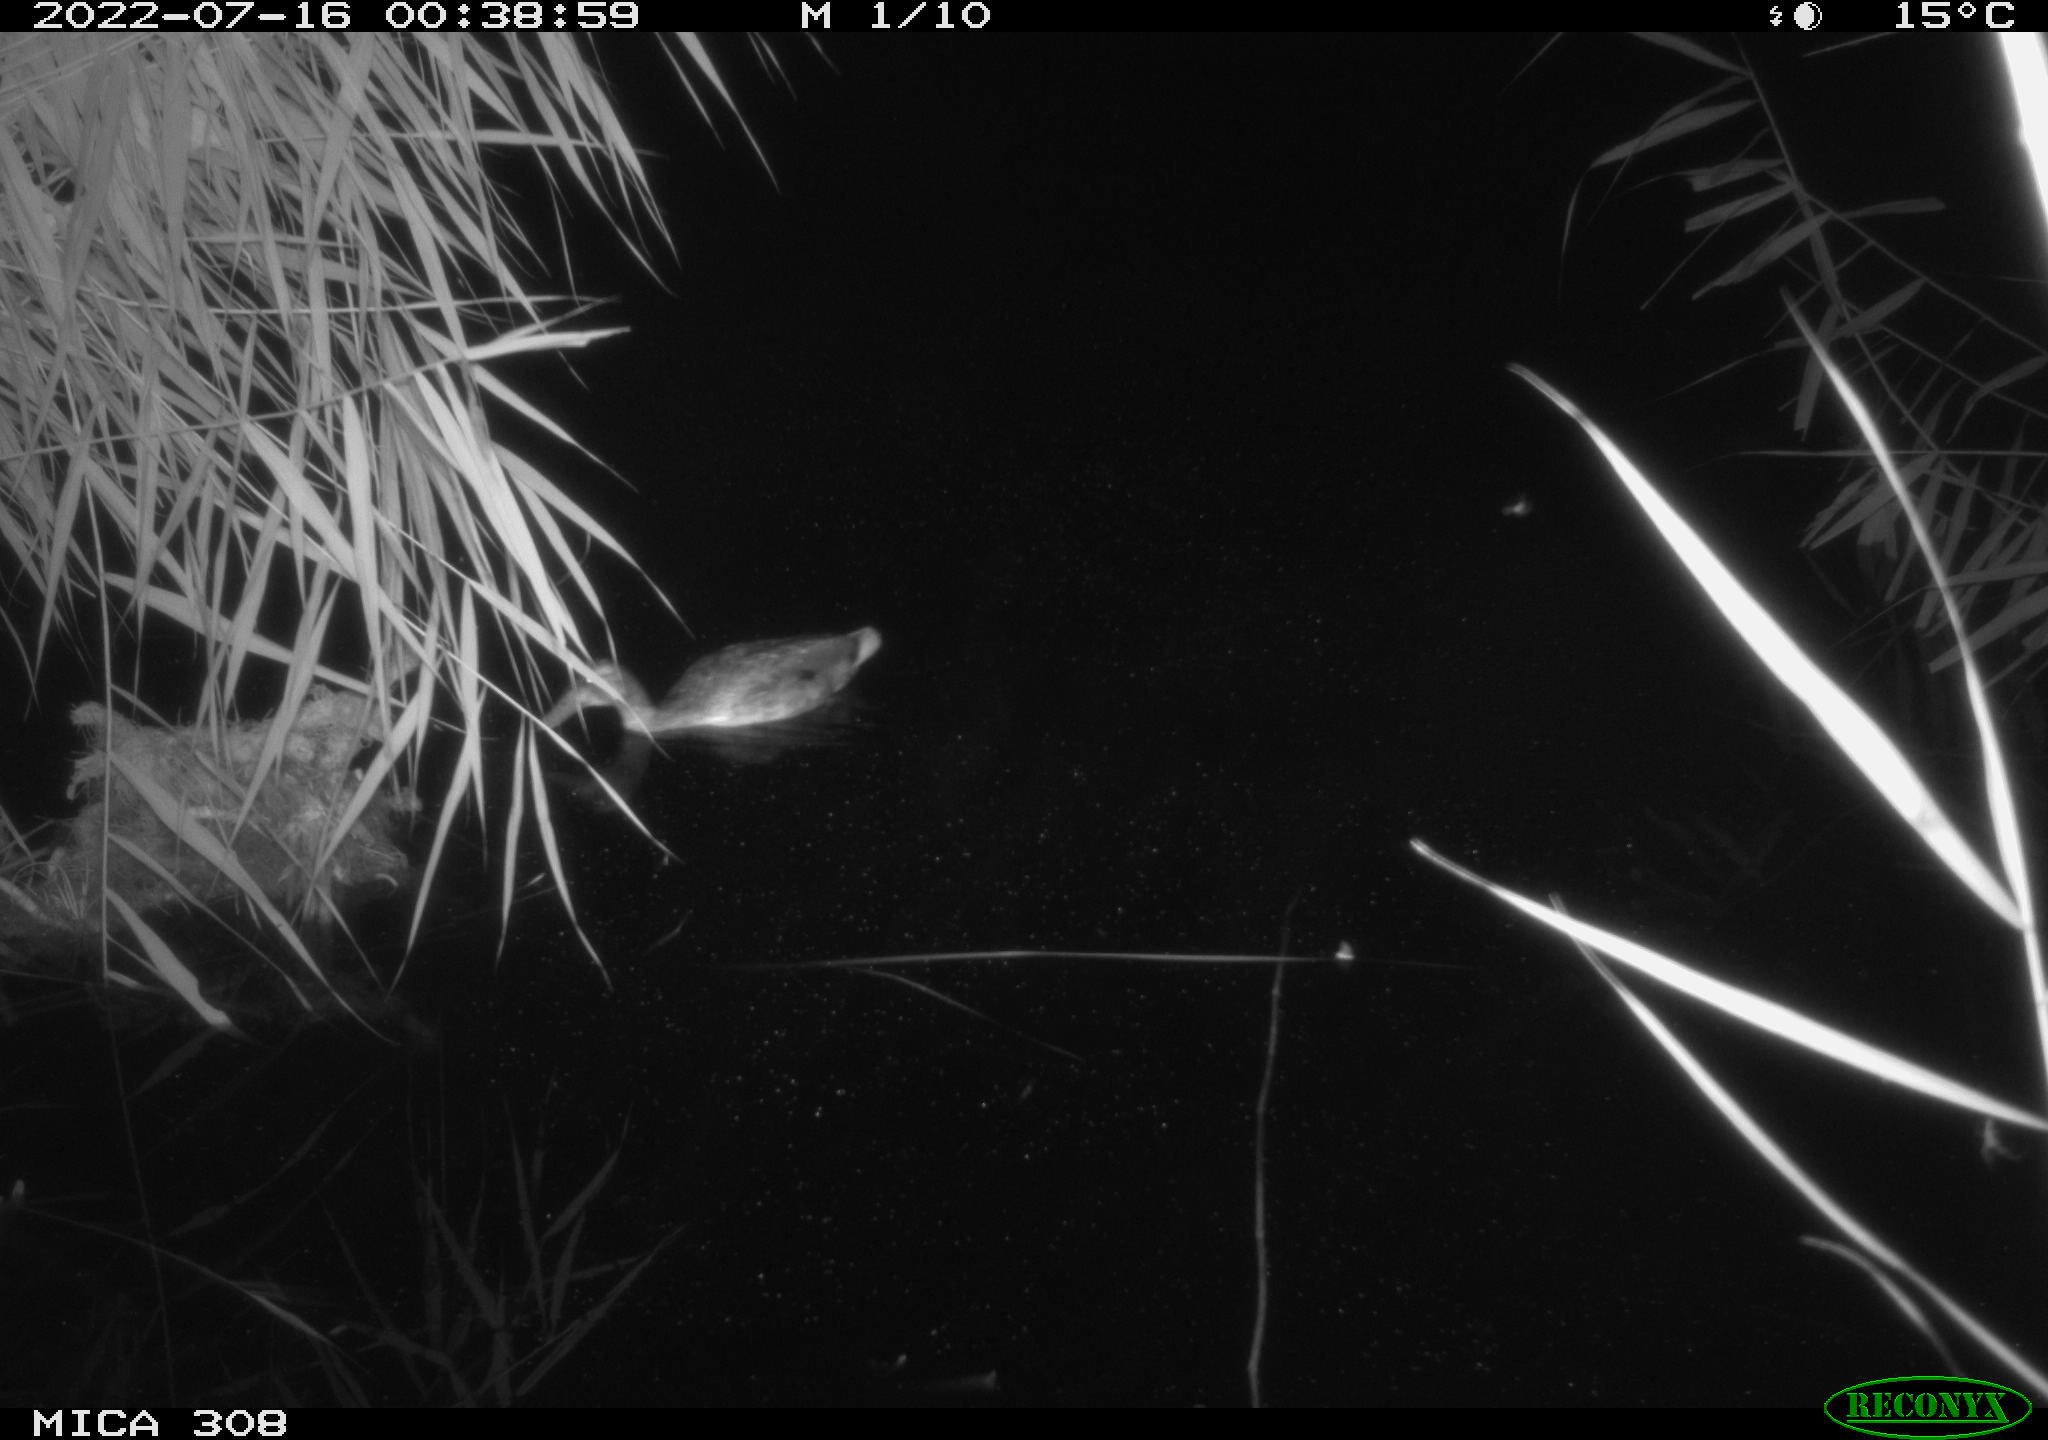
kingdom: Animalia
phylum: Chordata
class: Aves
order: Gruiformes
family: Rallidae
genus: Gallinula
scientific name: Gallinula chloropus
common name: Common moorhen
